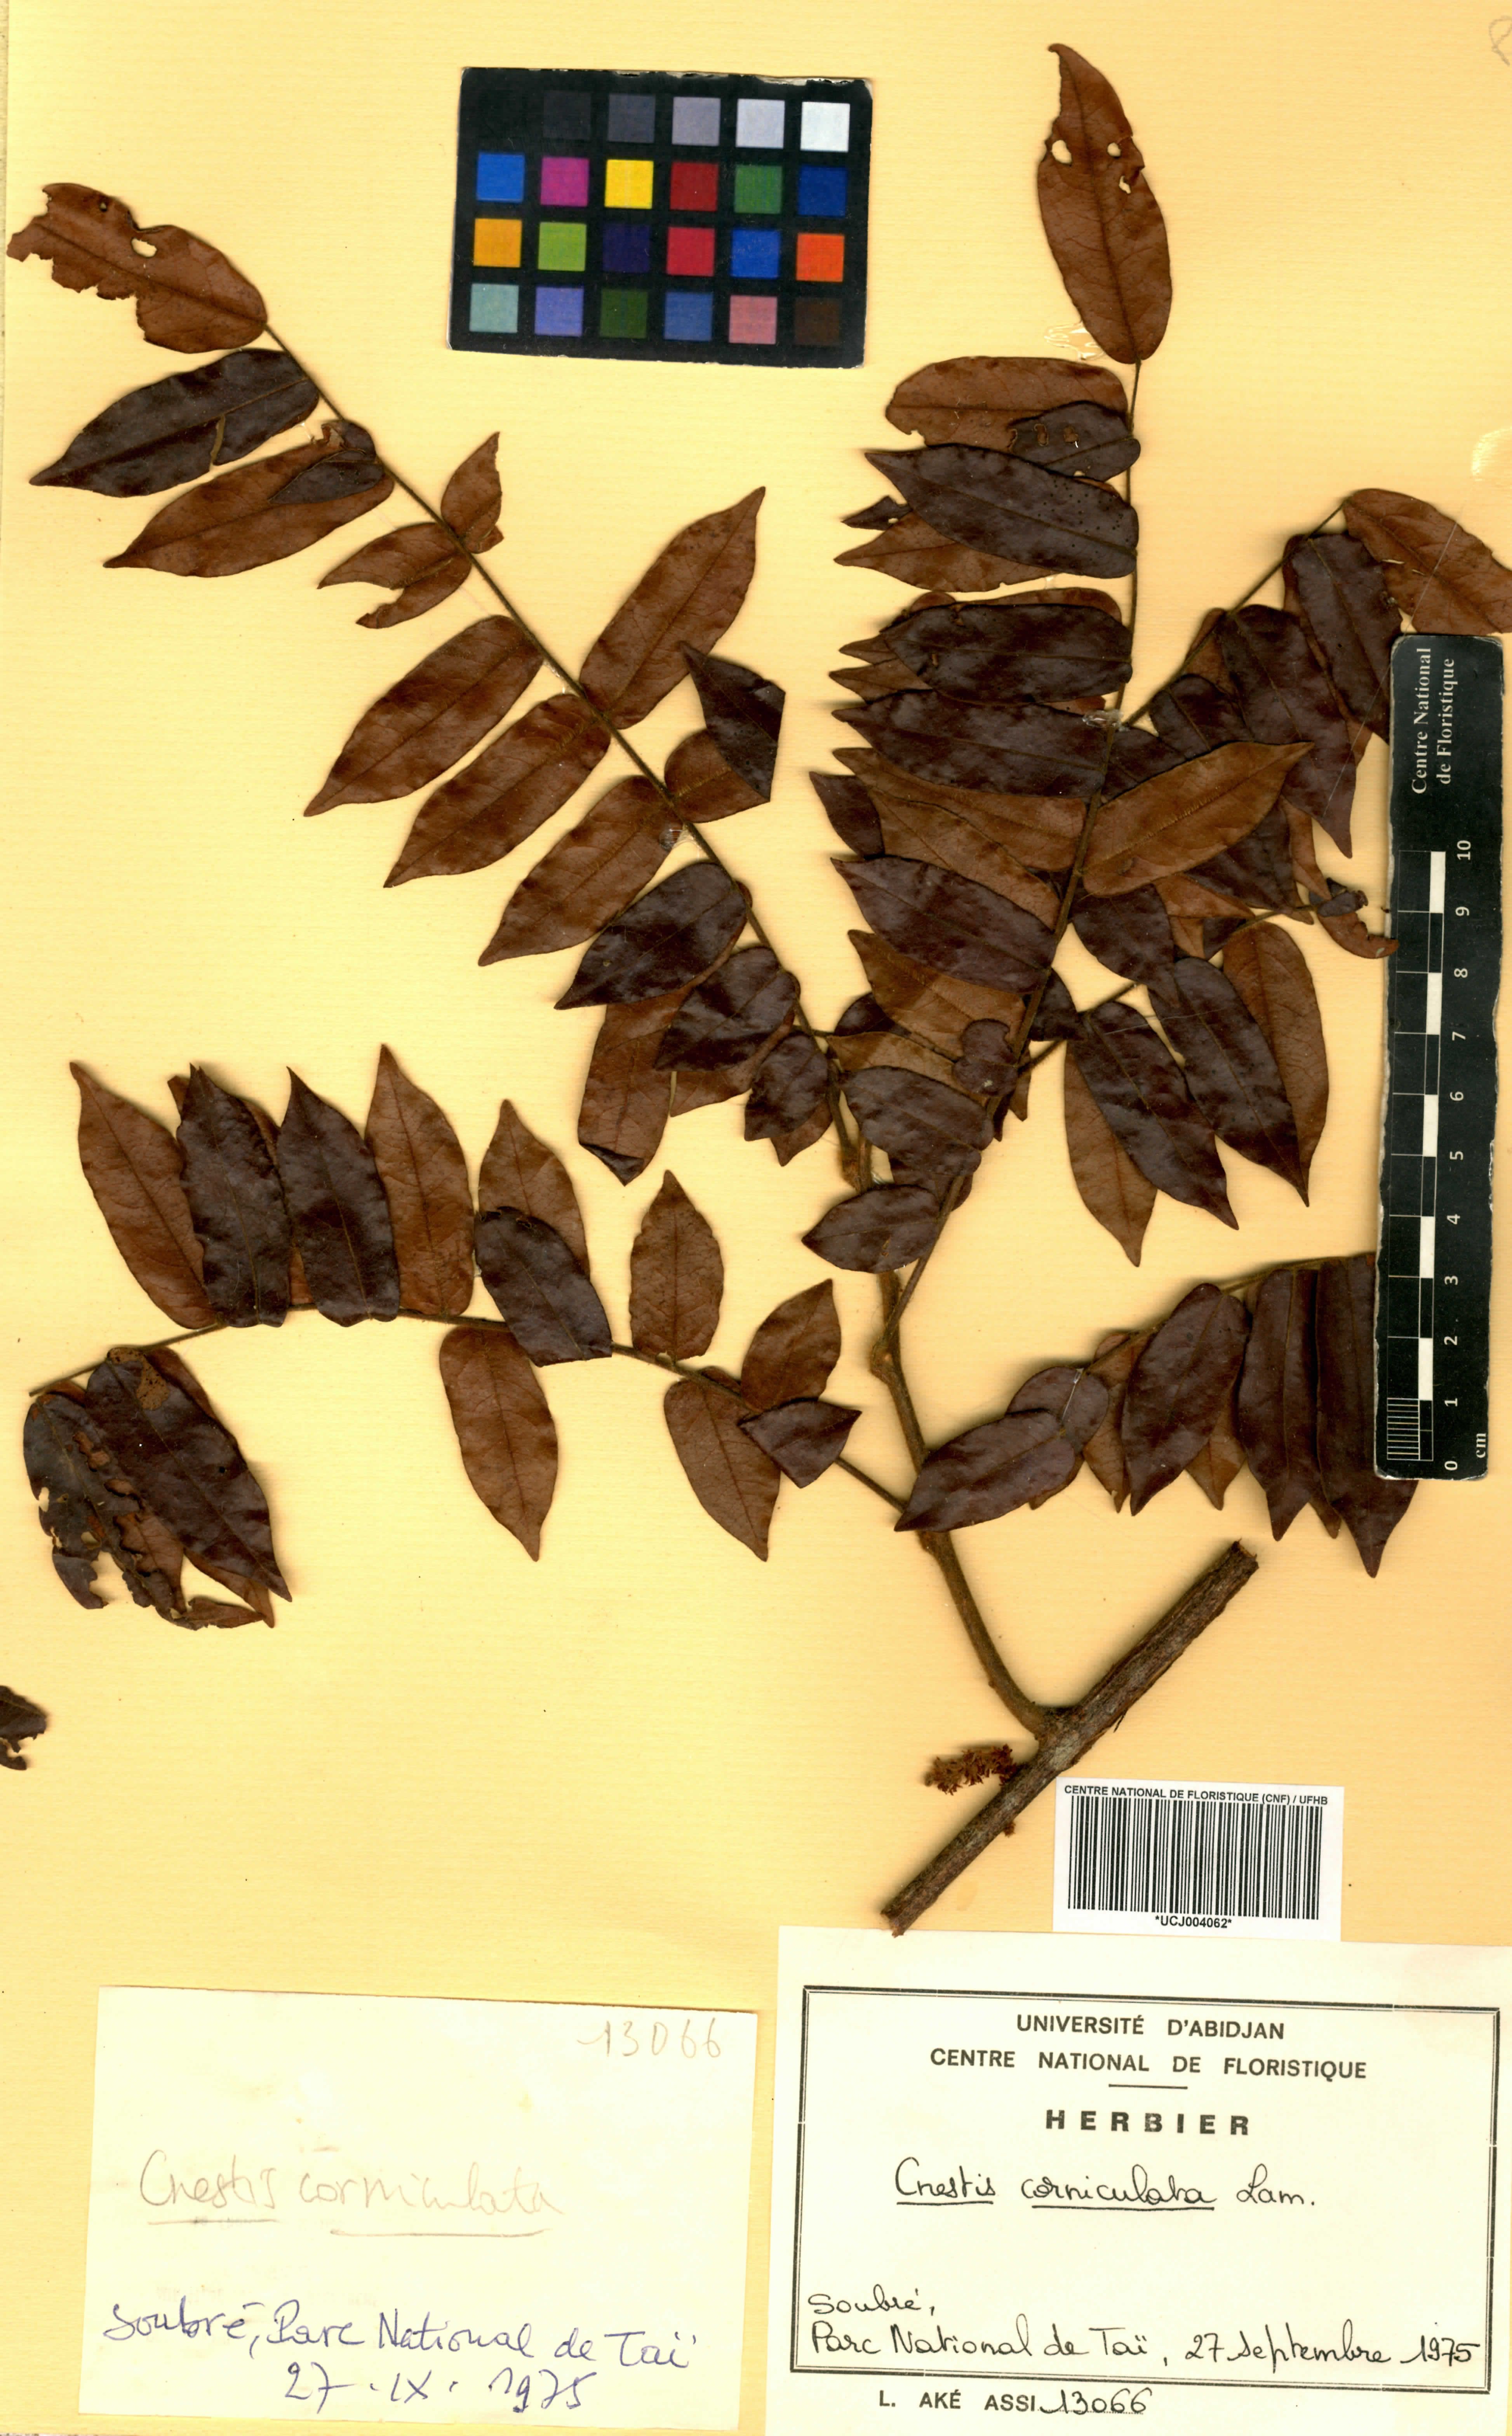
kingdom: Plantae
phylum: Tracheophyta
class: Magnoliopsida
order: Oxalidales
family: Connaraceae
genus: Cnestis
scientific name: Cnestis corniculata
